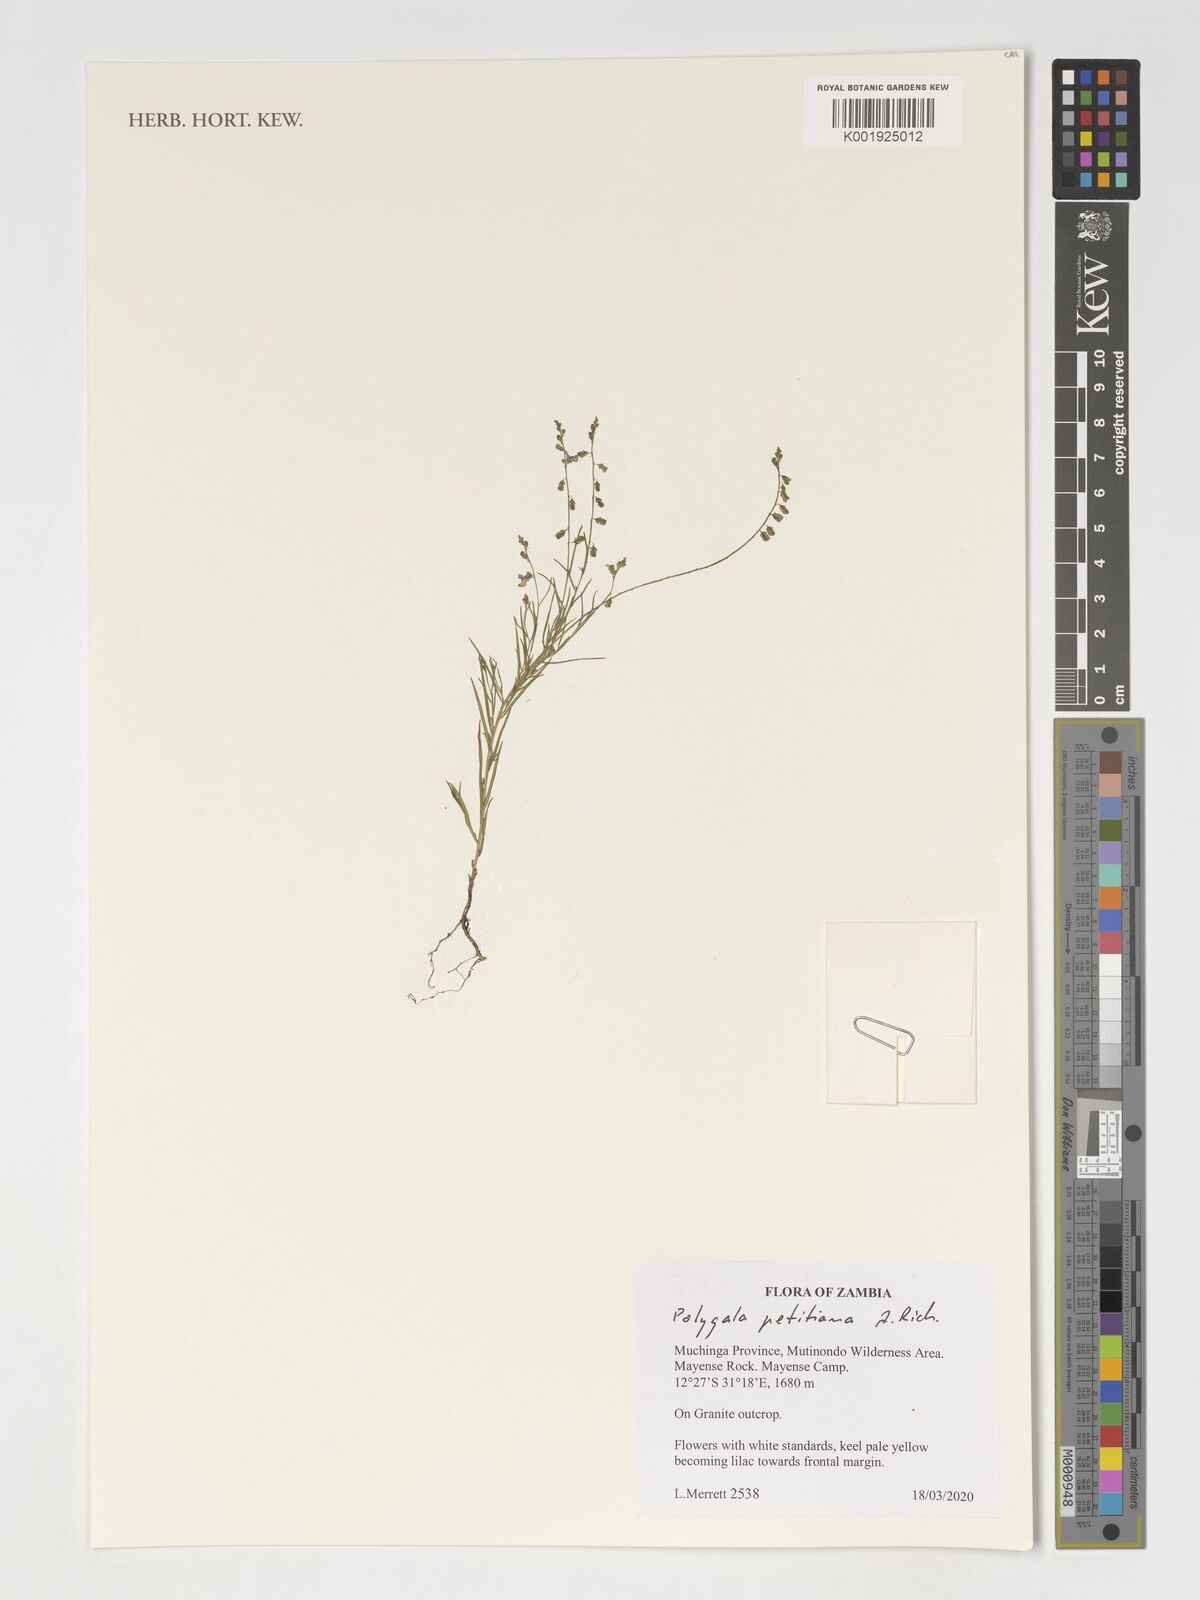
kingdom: Plantae
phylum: Tracheophyta
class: Magnoliopsida
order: Fabales
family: Polygalaceae
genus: Polygala
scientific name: Polygala petitiana
